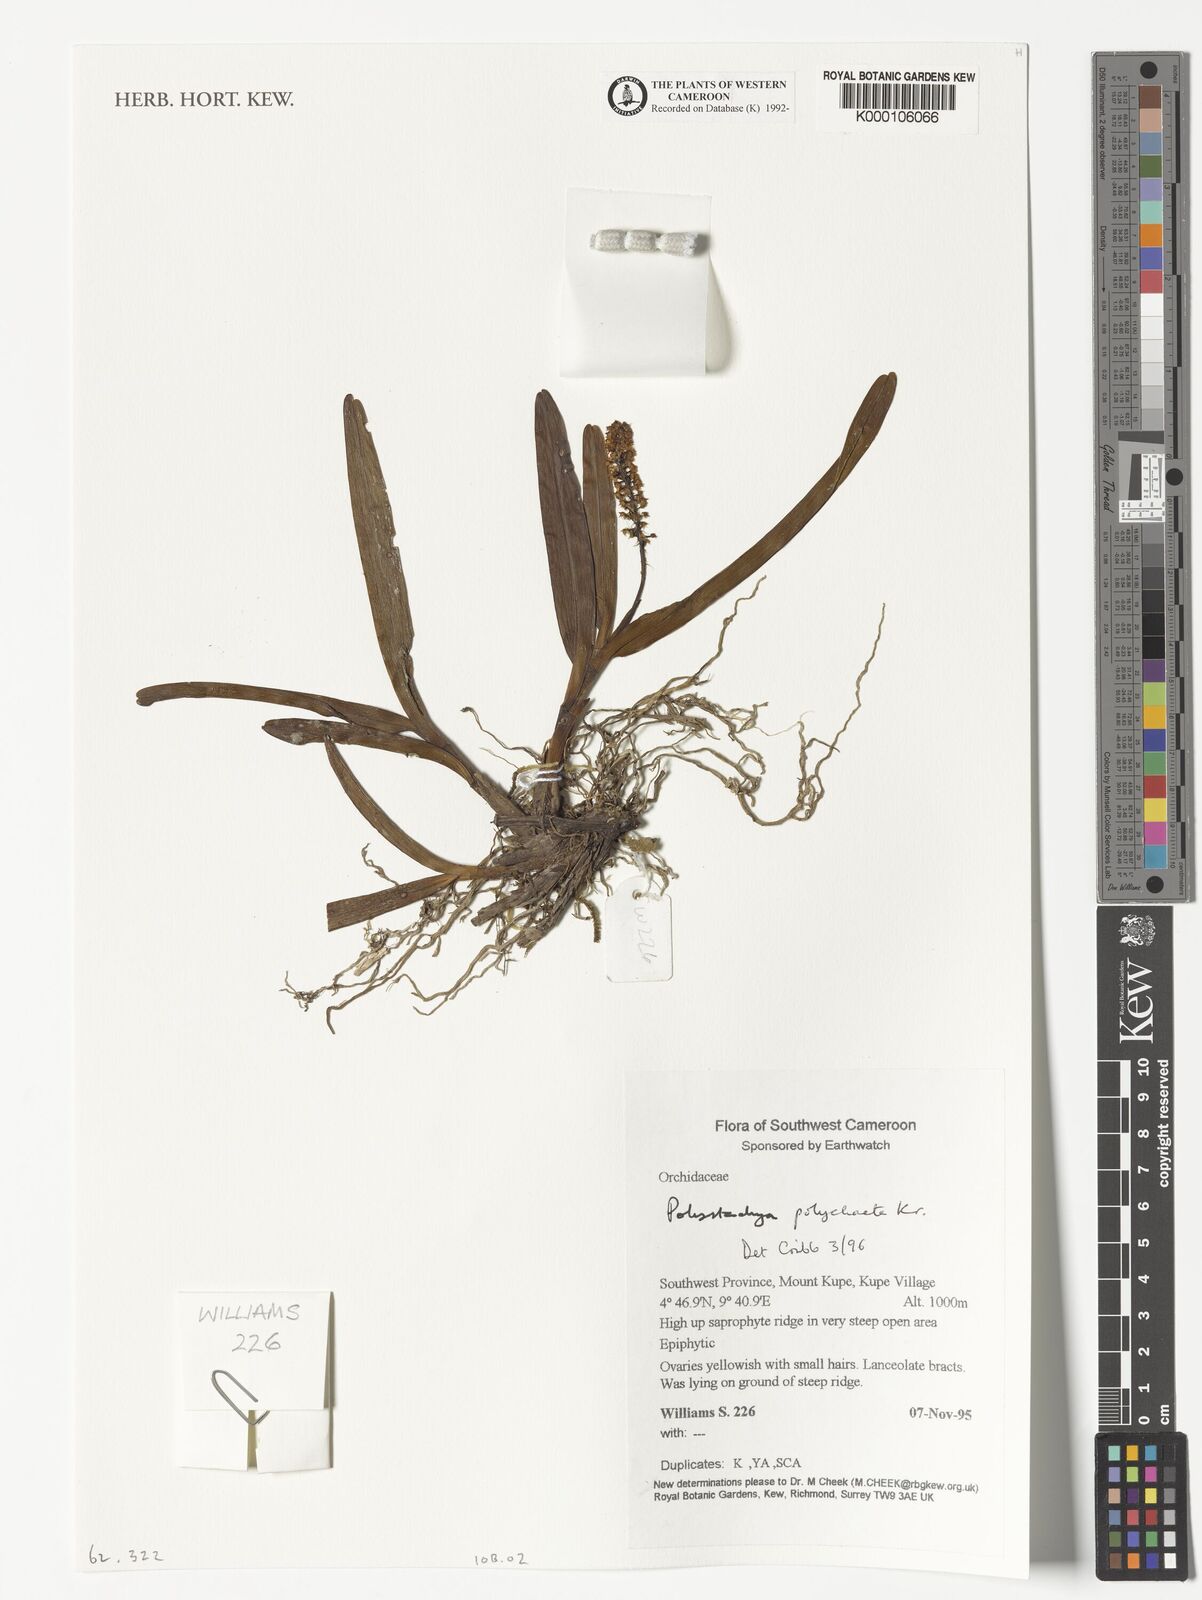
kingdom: Plantae
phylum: Tracheophyta
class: Liliopsida
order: Asparagales
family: Orchidaceae
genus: Polystachya
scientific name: Polystachya polychaete
